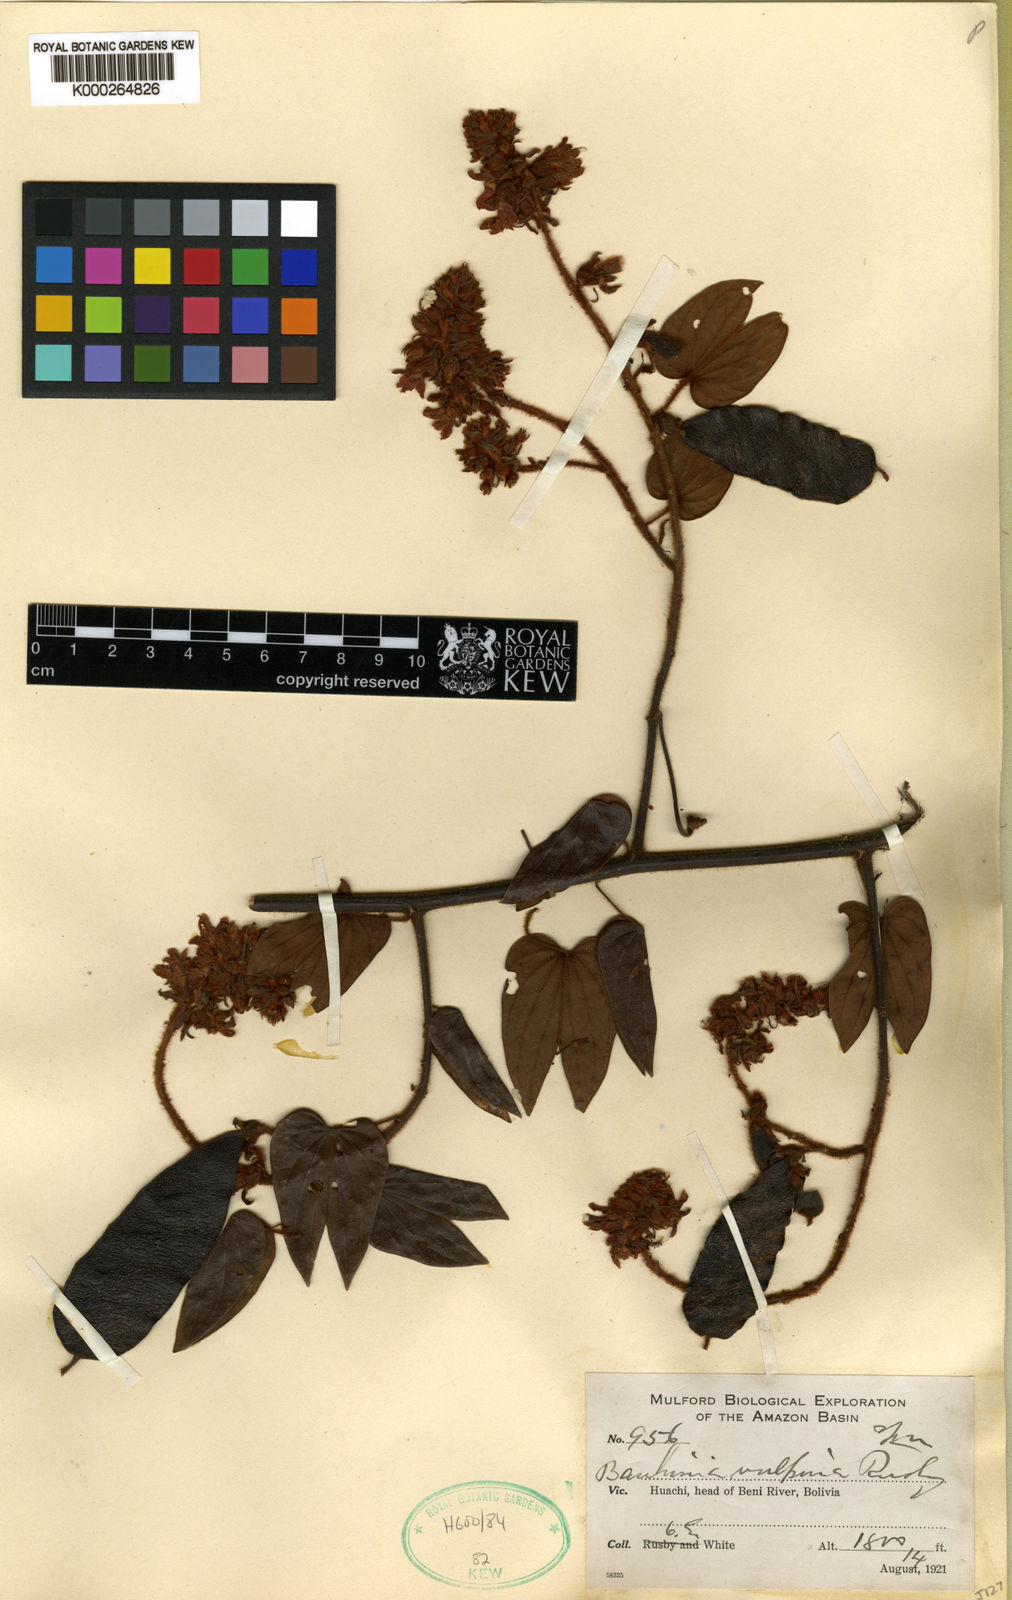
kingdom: Plantae
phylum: Tracheophyta
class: Magnoliopsida
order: Fabales
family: Fabaceae
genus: Schnella
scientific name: Schnella vulpina
